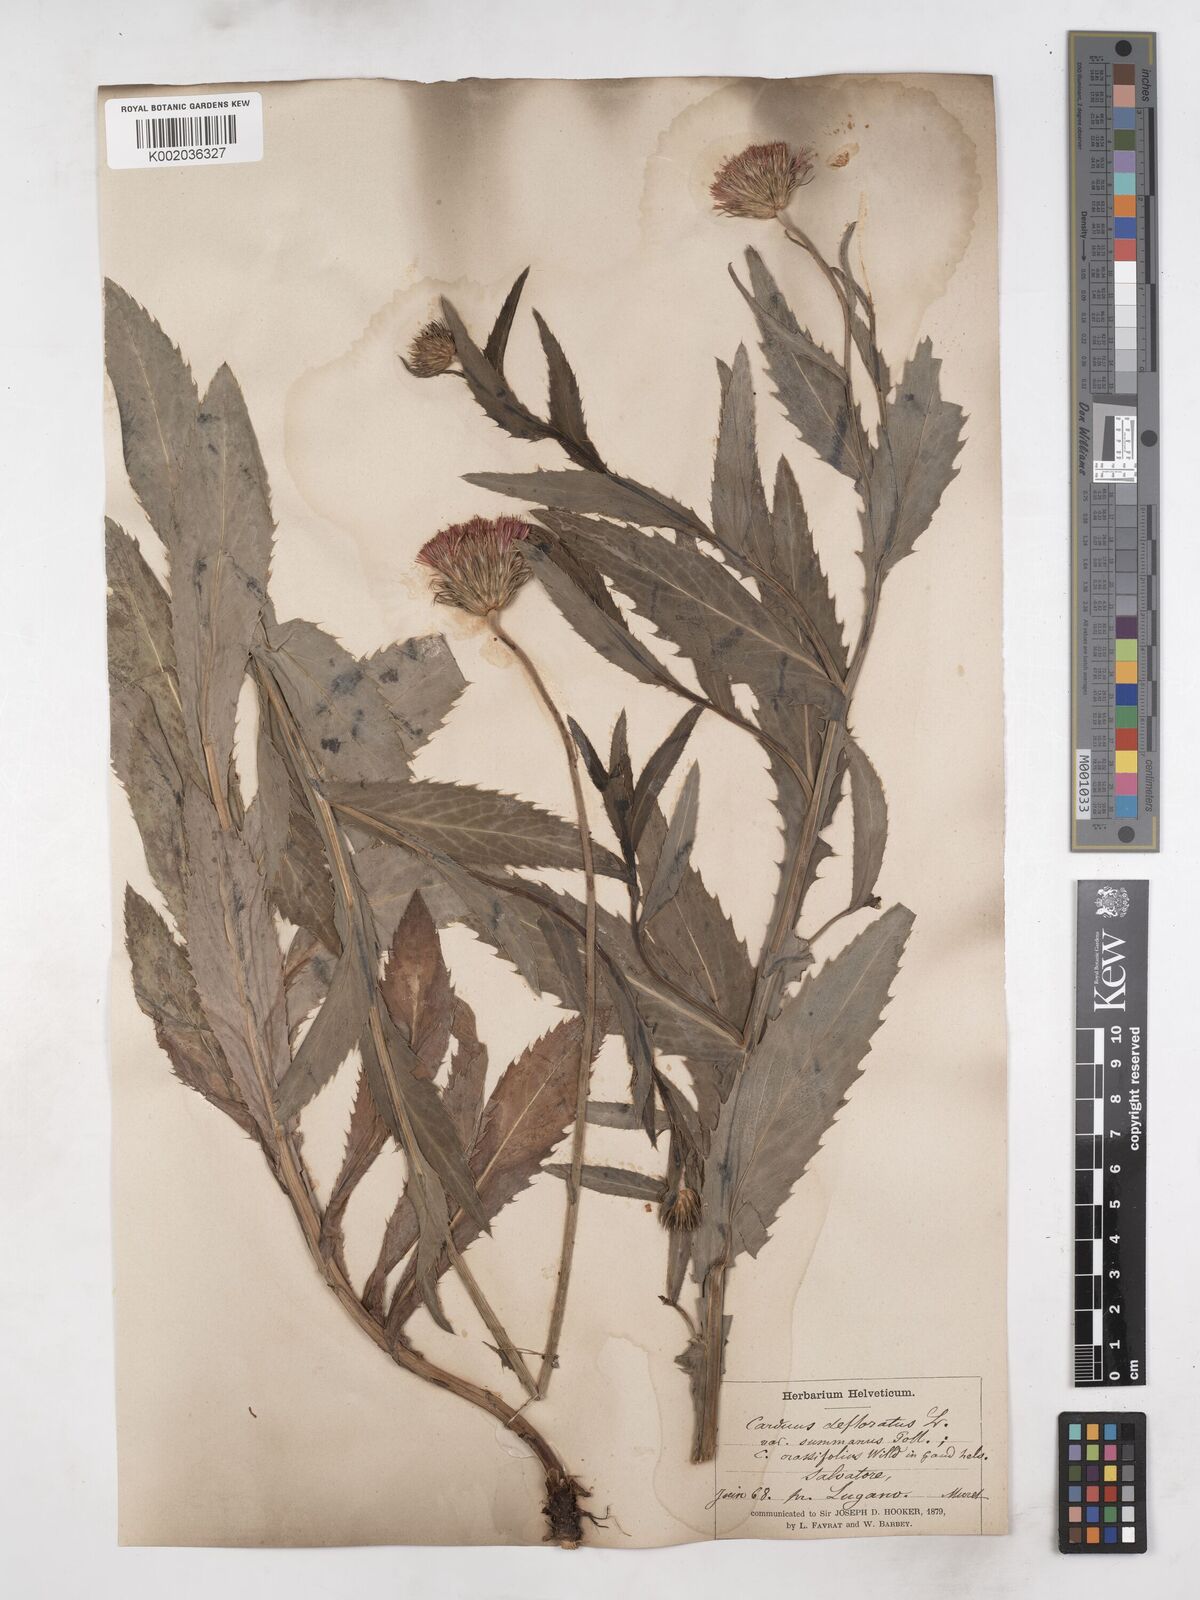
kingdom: Plantae
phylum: Tracheophyta
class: Magnoliopsida
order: Asterales
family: Asteraceae
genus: Carduus
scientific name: Carduus defloratus
